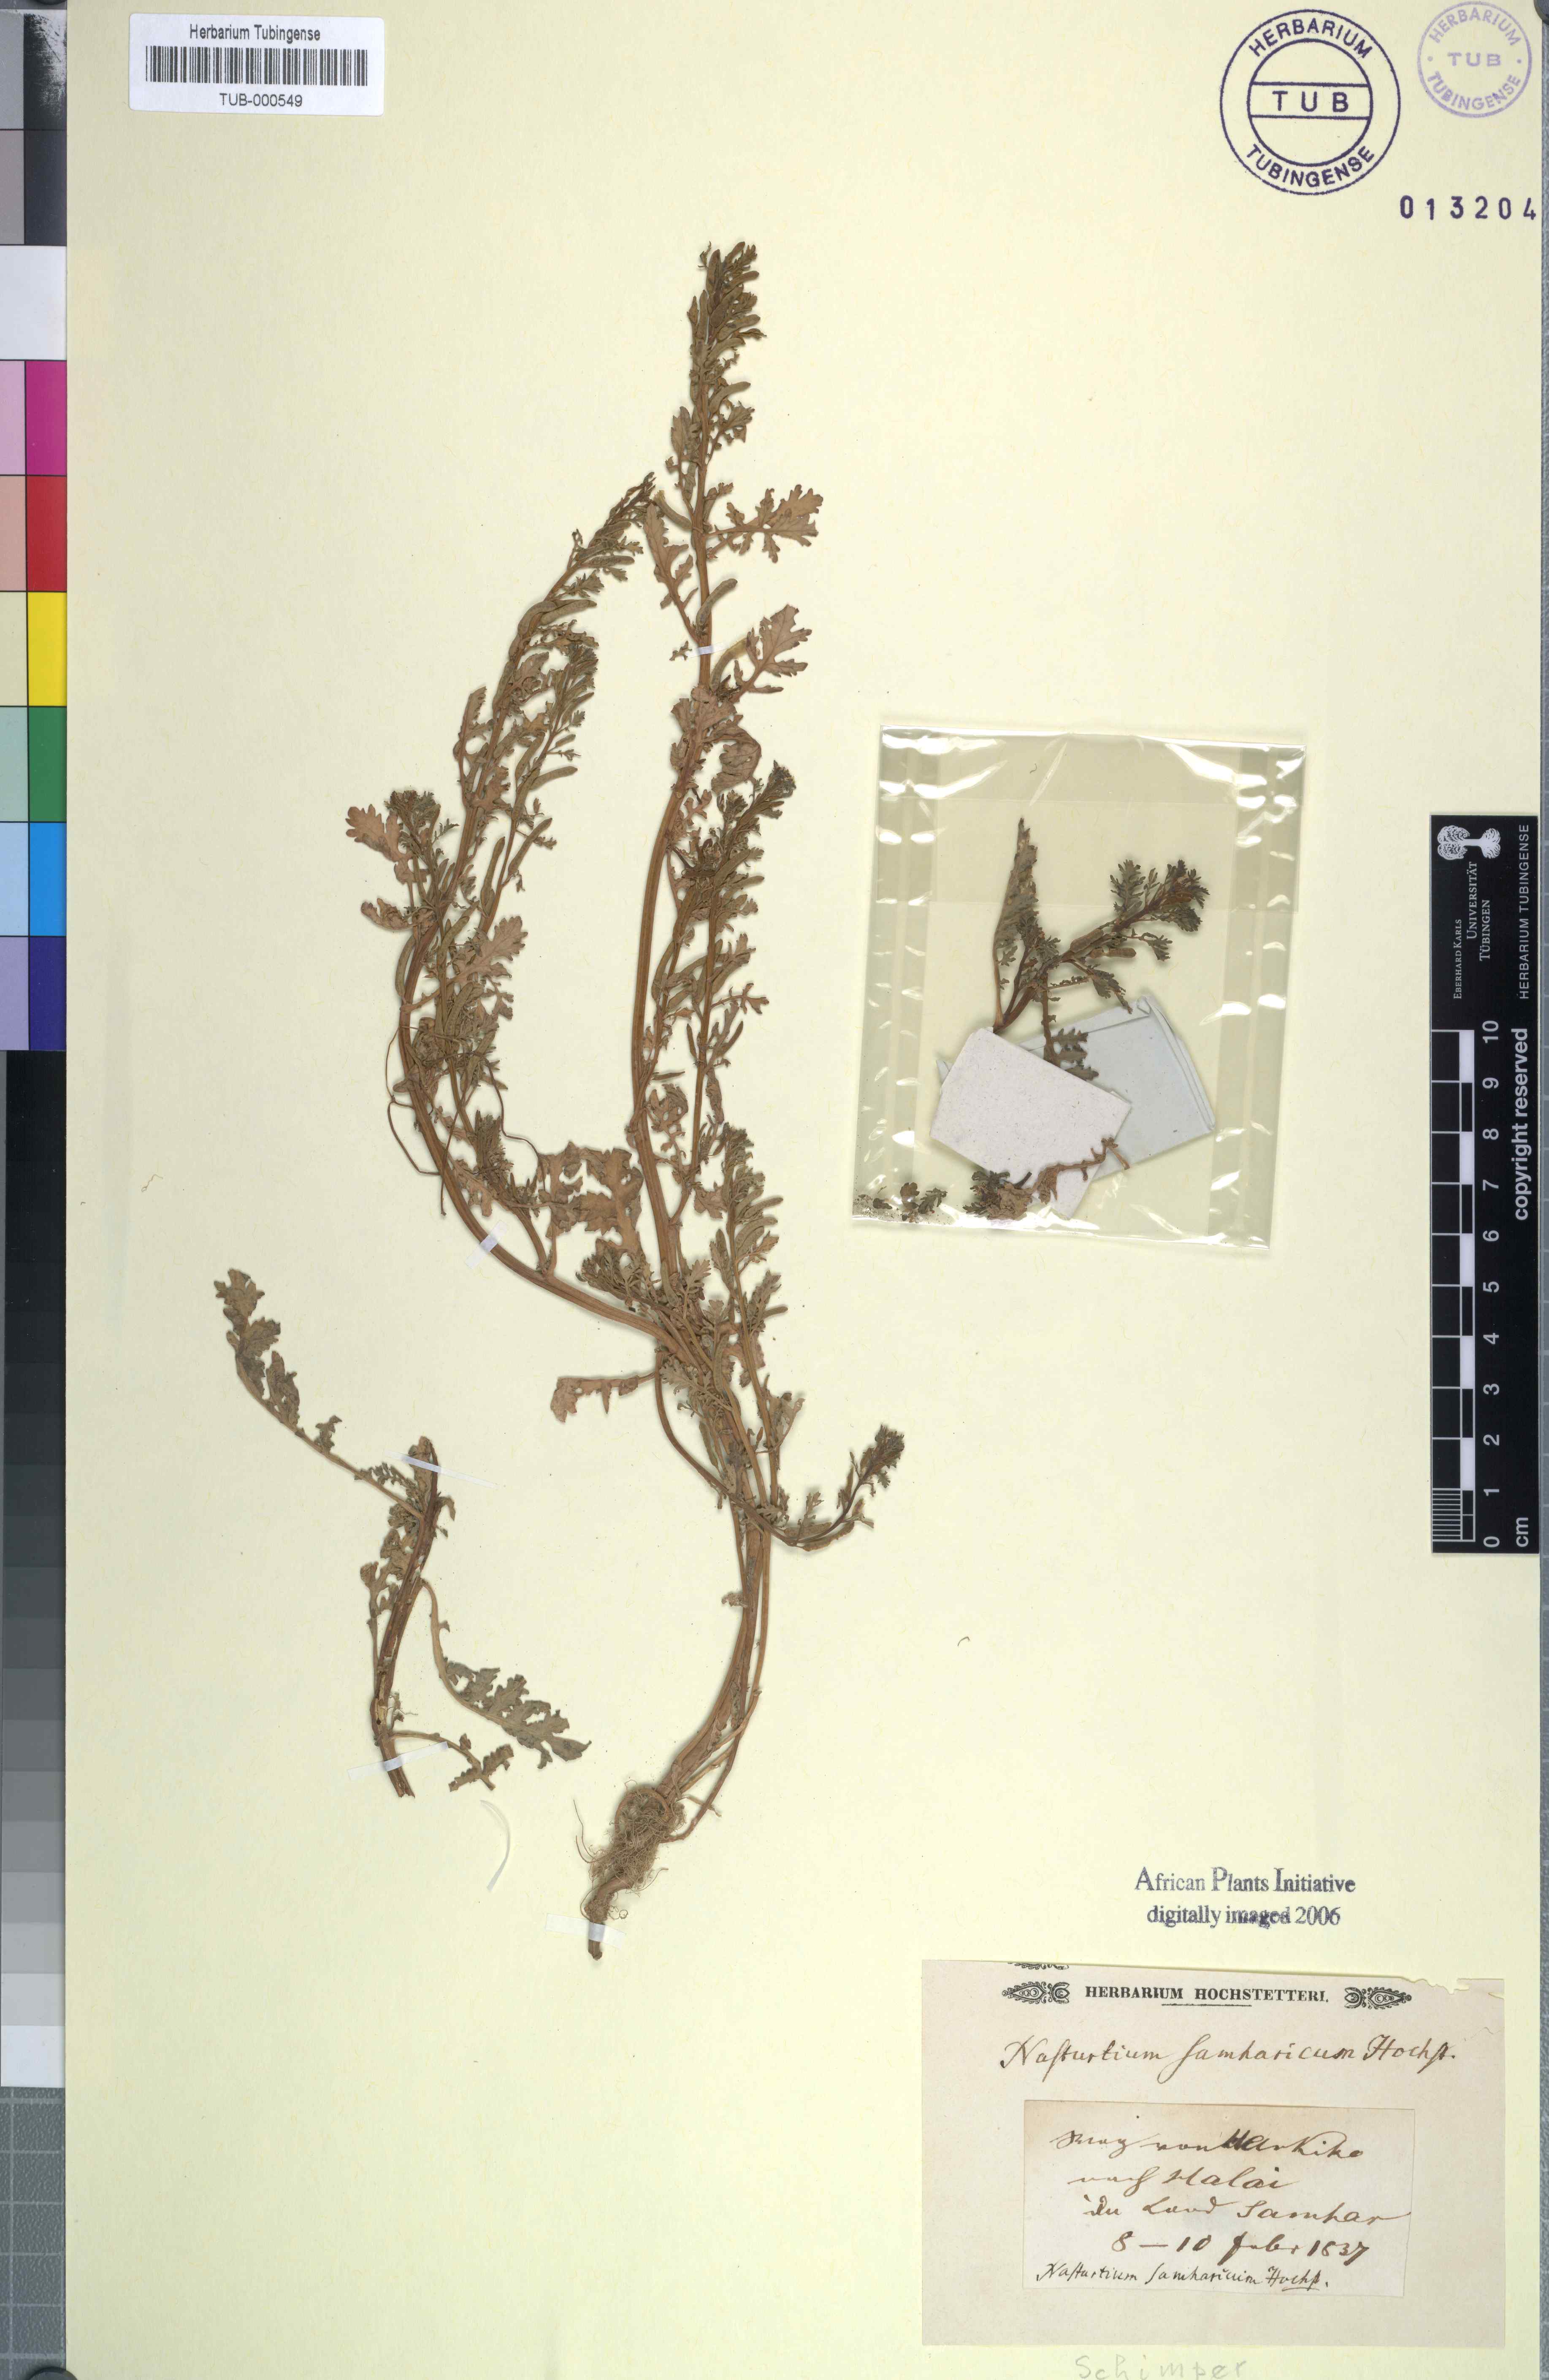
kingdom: Plantae
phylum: Tracheophyta
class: Magnoliopsida
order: Brassicales
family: Brassicaceae
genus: Nasturtium
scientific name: Nasturtium
